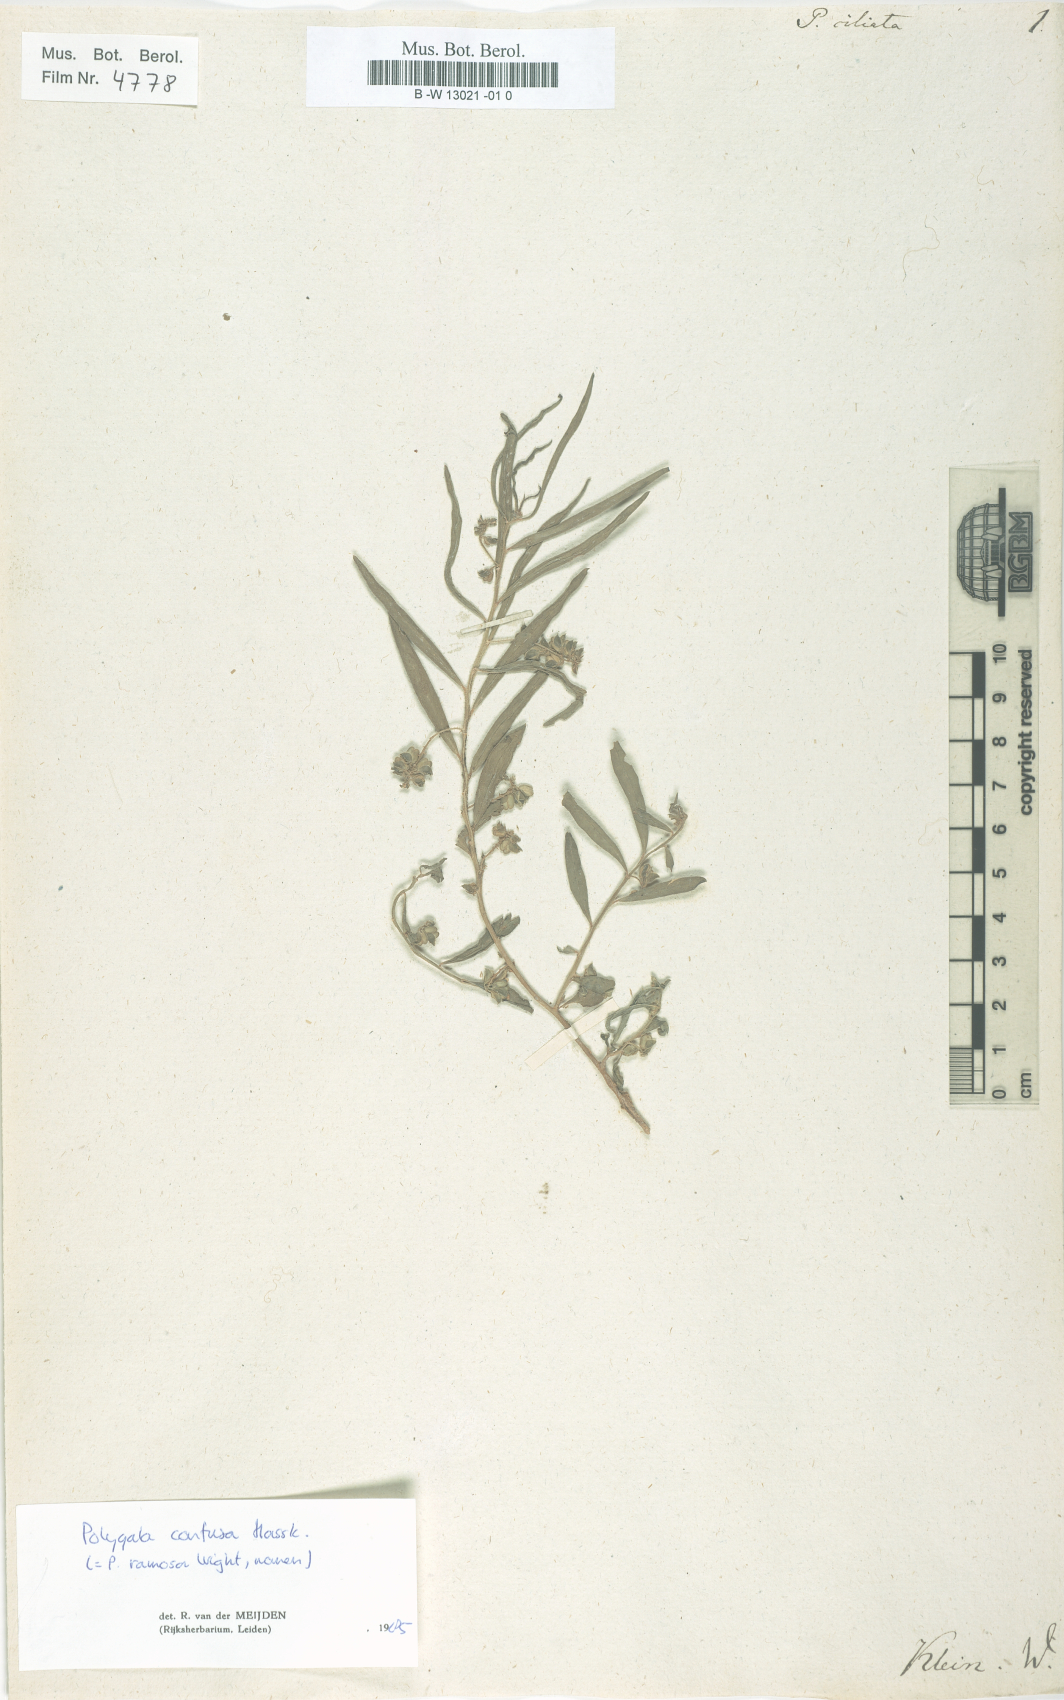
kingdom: Plantae
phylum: Tracheophyta
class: Magnoliopsida
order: Fabales
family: Polygalaceae
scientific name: Polygalaceae
